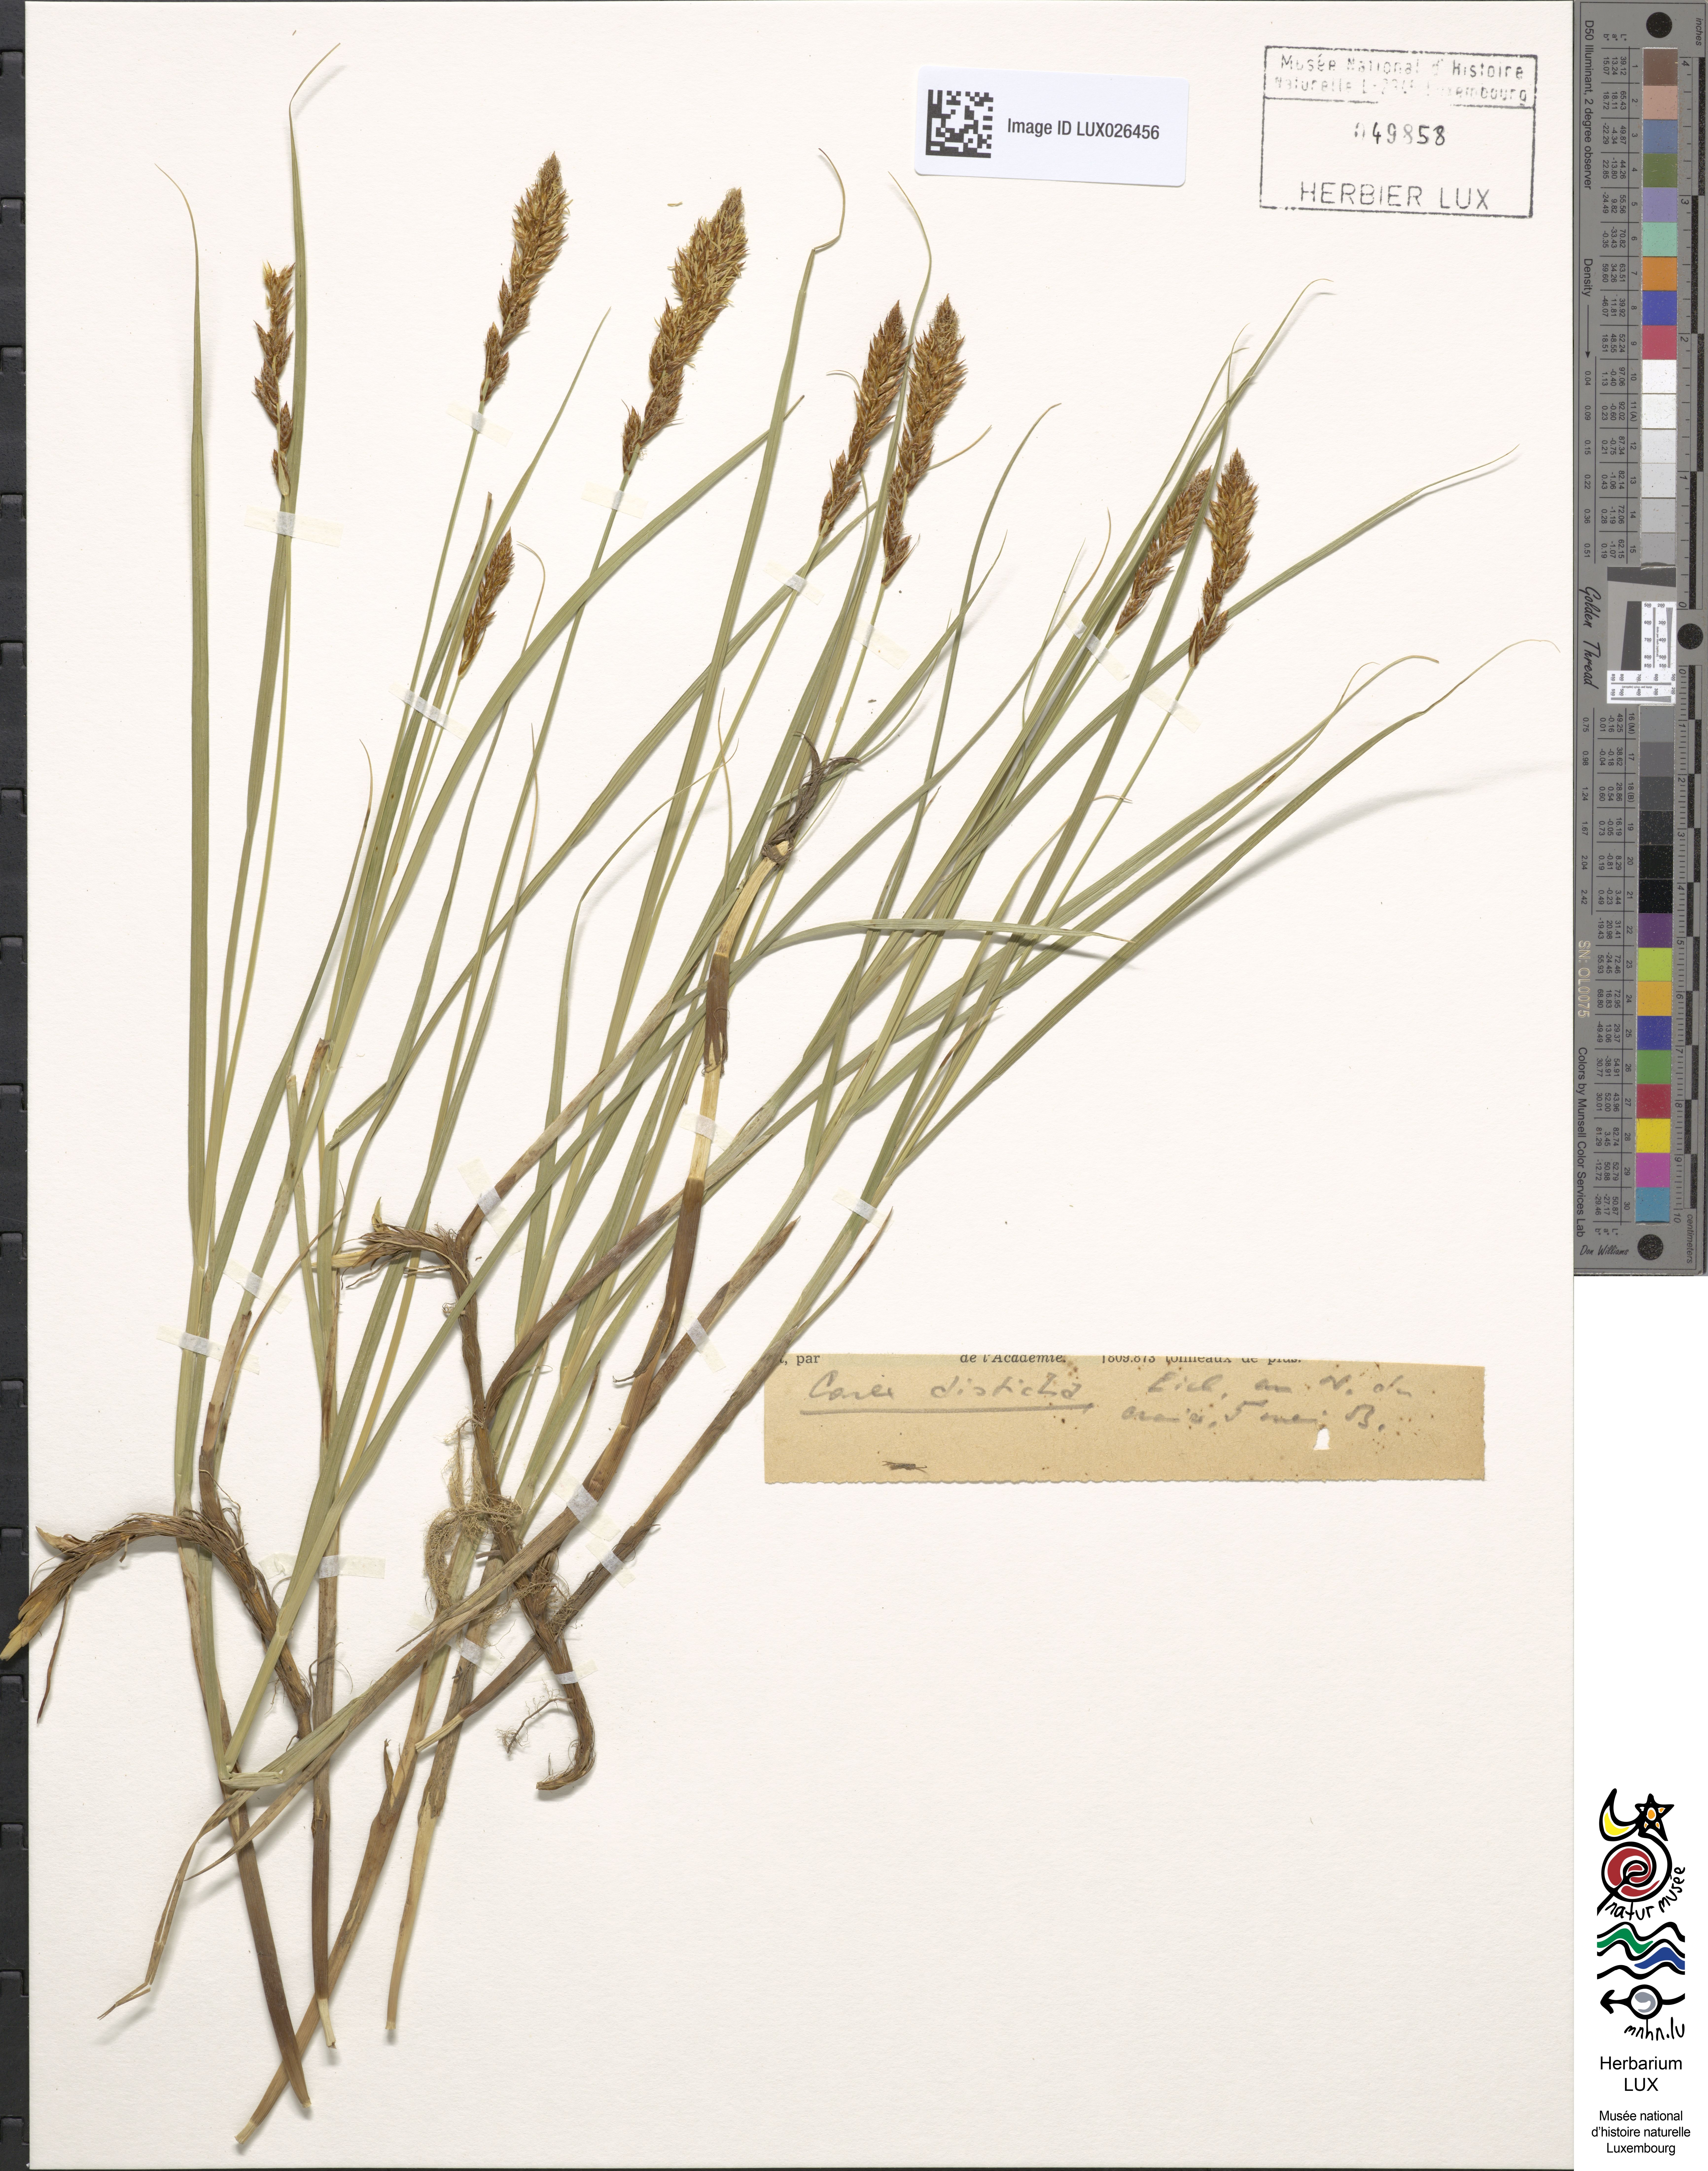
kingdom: Plantae
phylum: Tracheophyta
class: Liliopsida
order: Poales
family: Cyperaceae
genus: Carex
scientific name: Carex disticha
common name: Brown sedge
